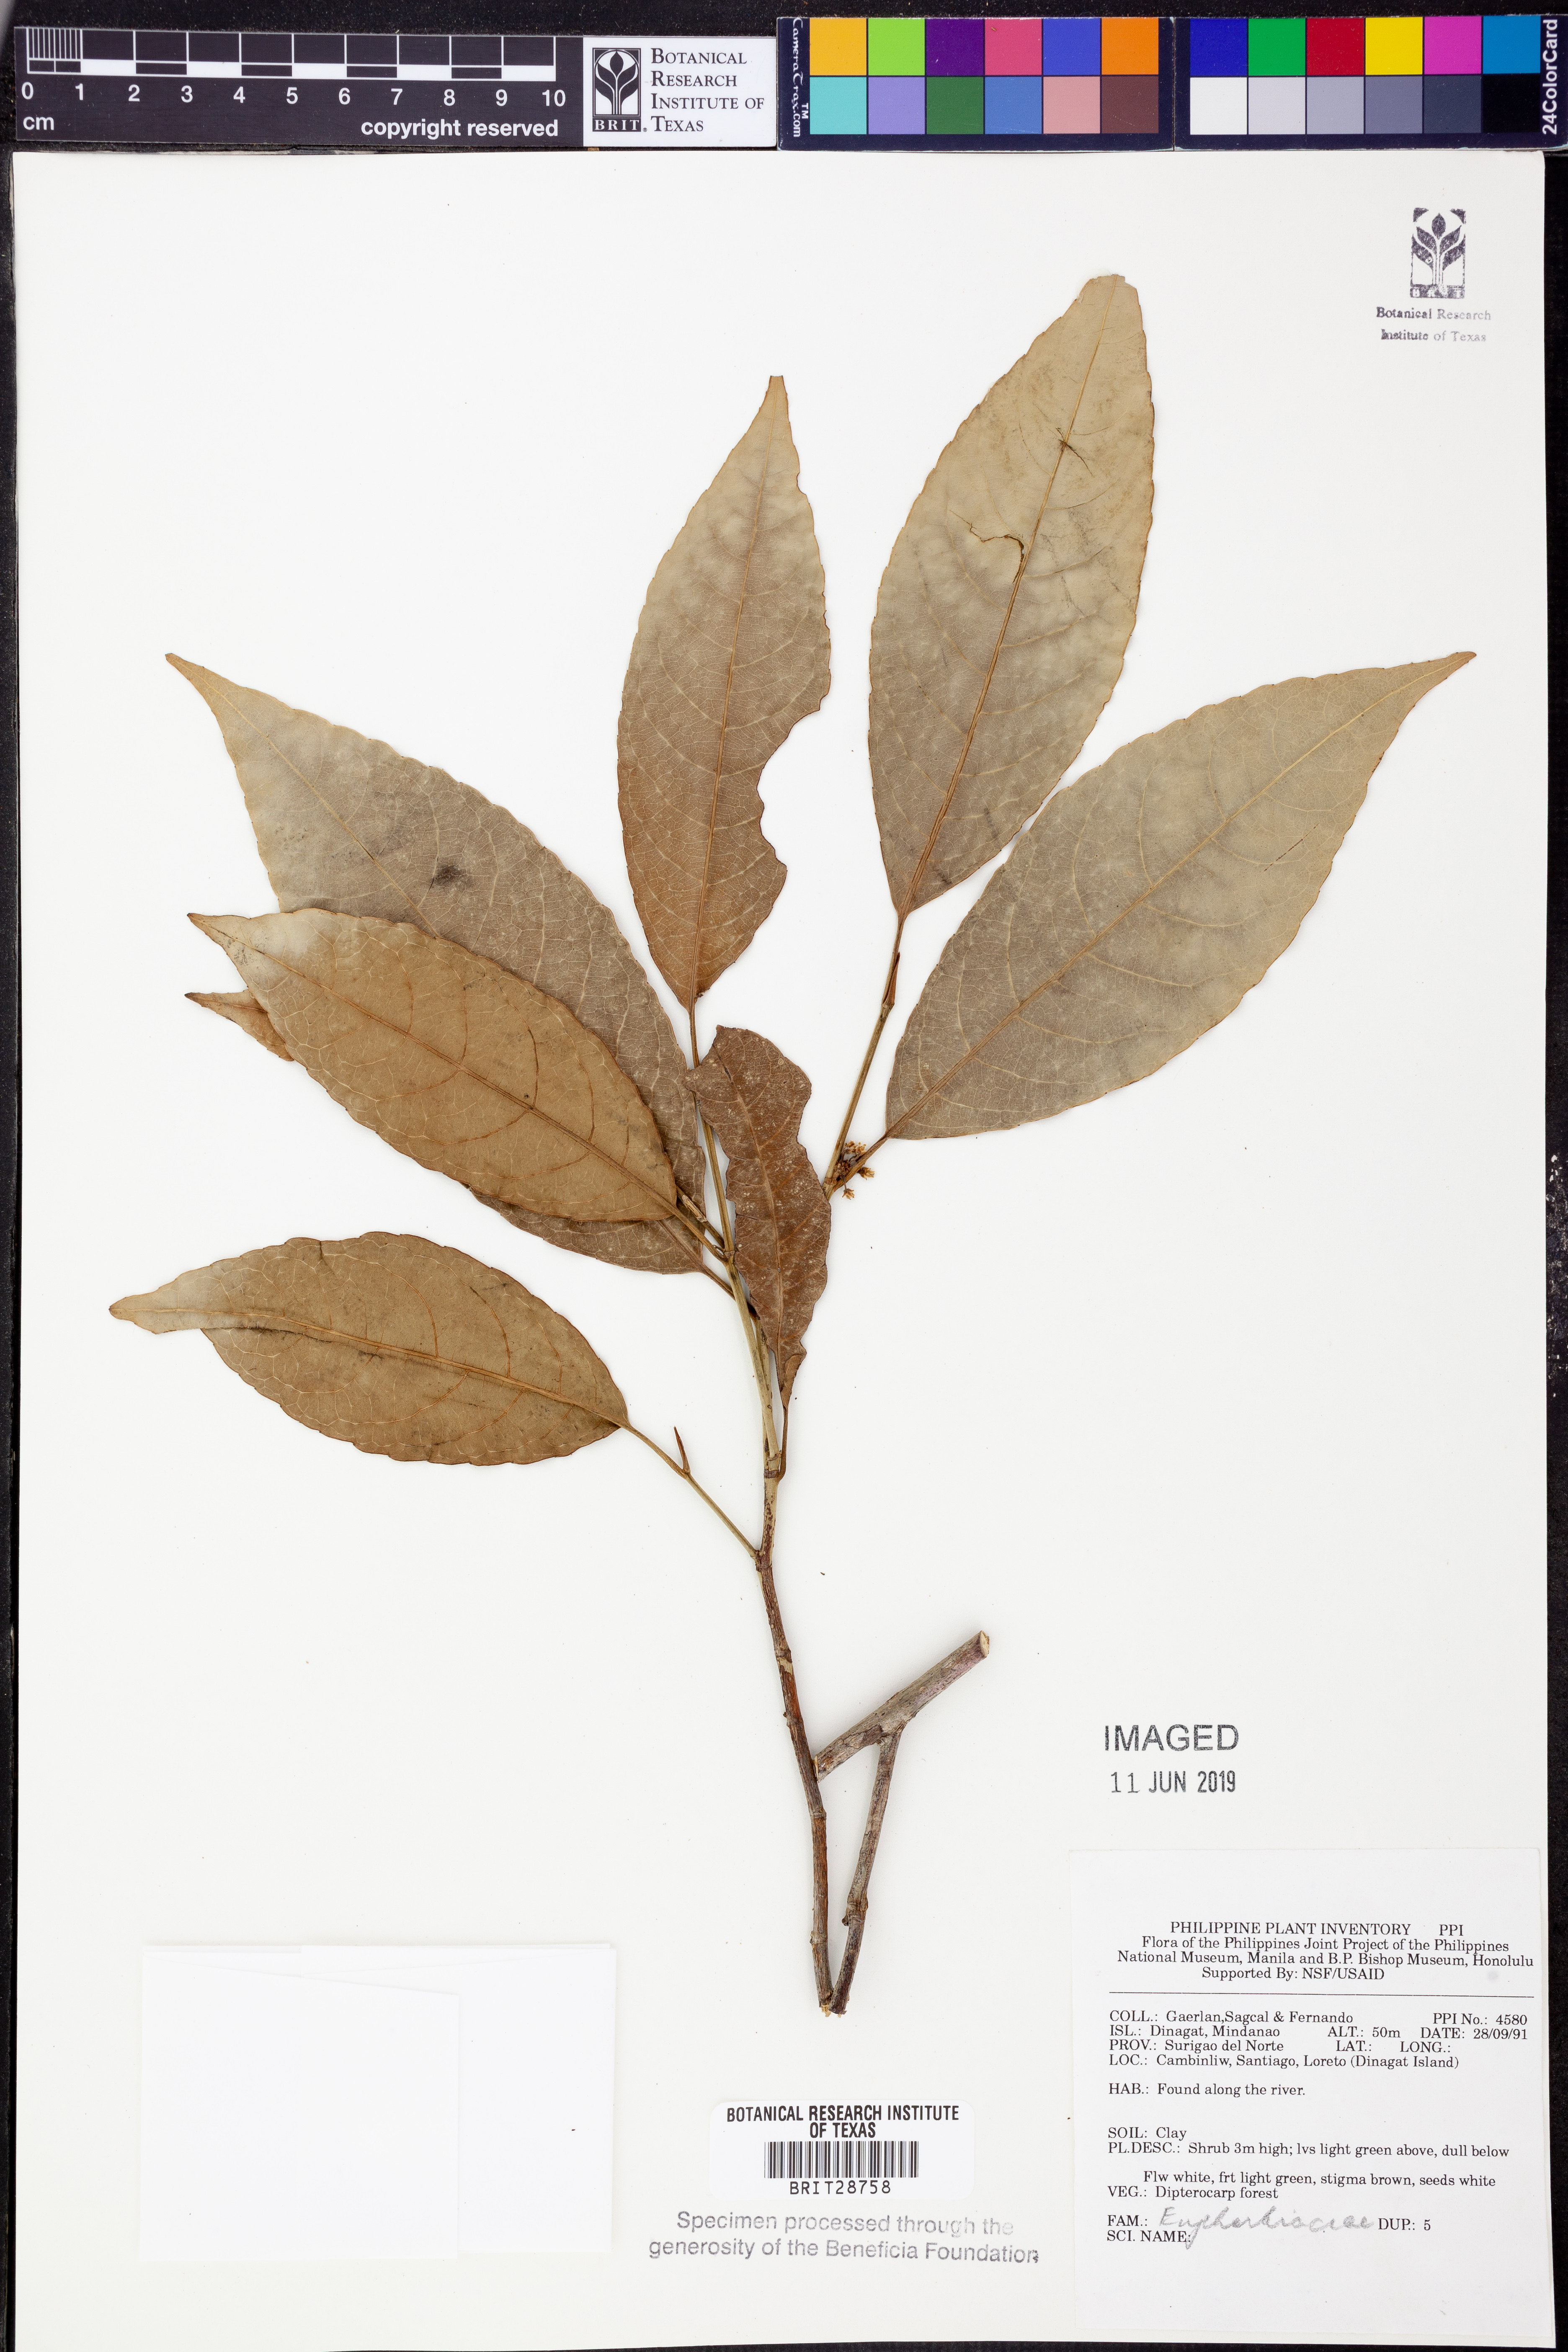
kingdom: Plantae
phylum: Tracheophyta
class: Magnoliopsida
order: Malpighiales
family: Euphorbiaceae
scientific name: Euphorbiaceae
